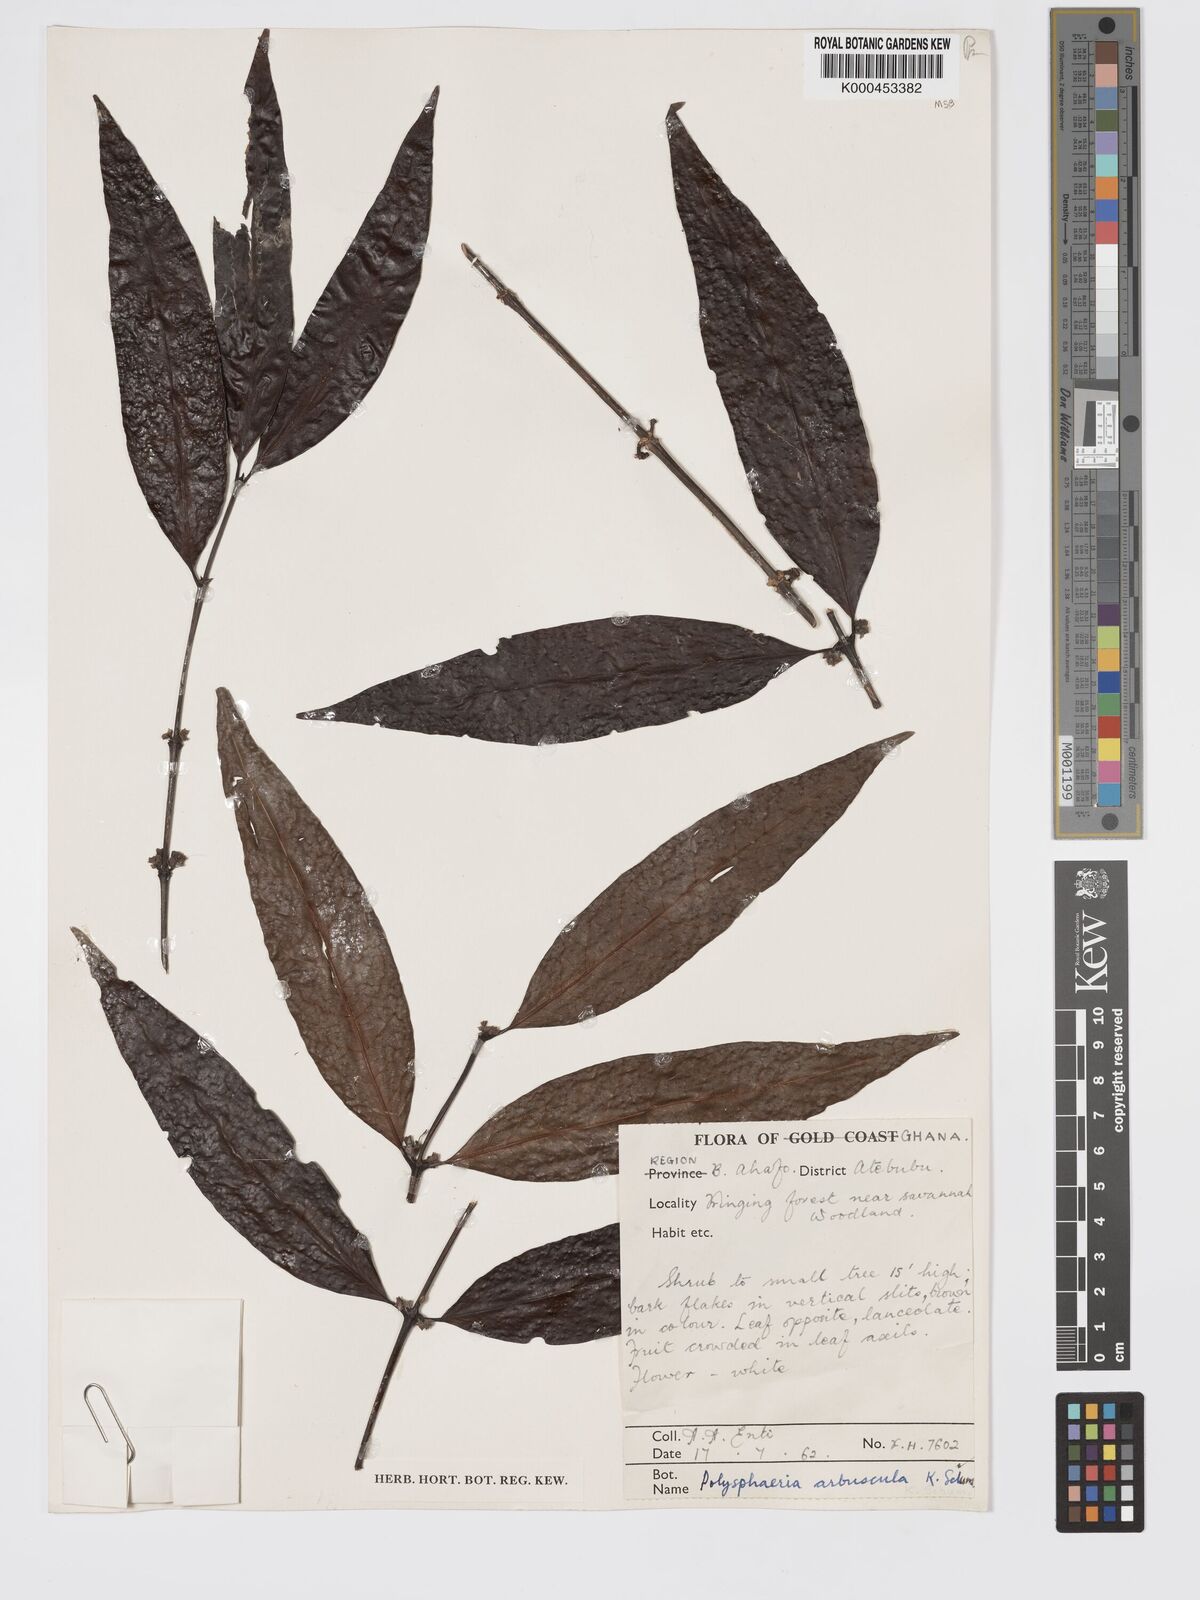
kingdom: Plantae
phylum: Tracheophyta
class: Magnoliopsida
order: Gentianales
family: Rubiaceae
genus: Polysphaeria
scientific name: Polysphaeria arbuscula
